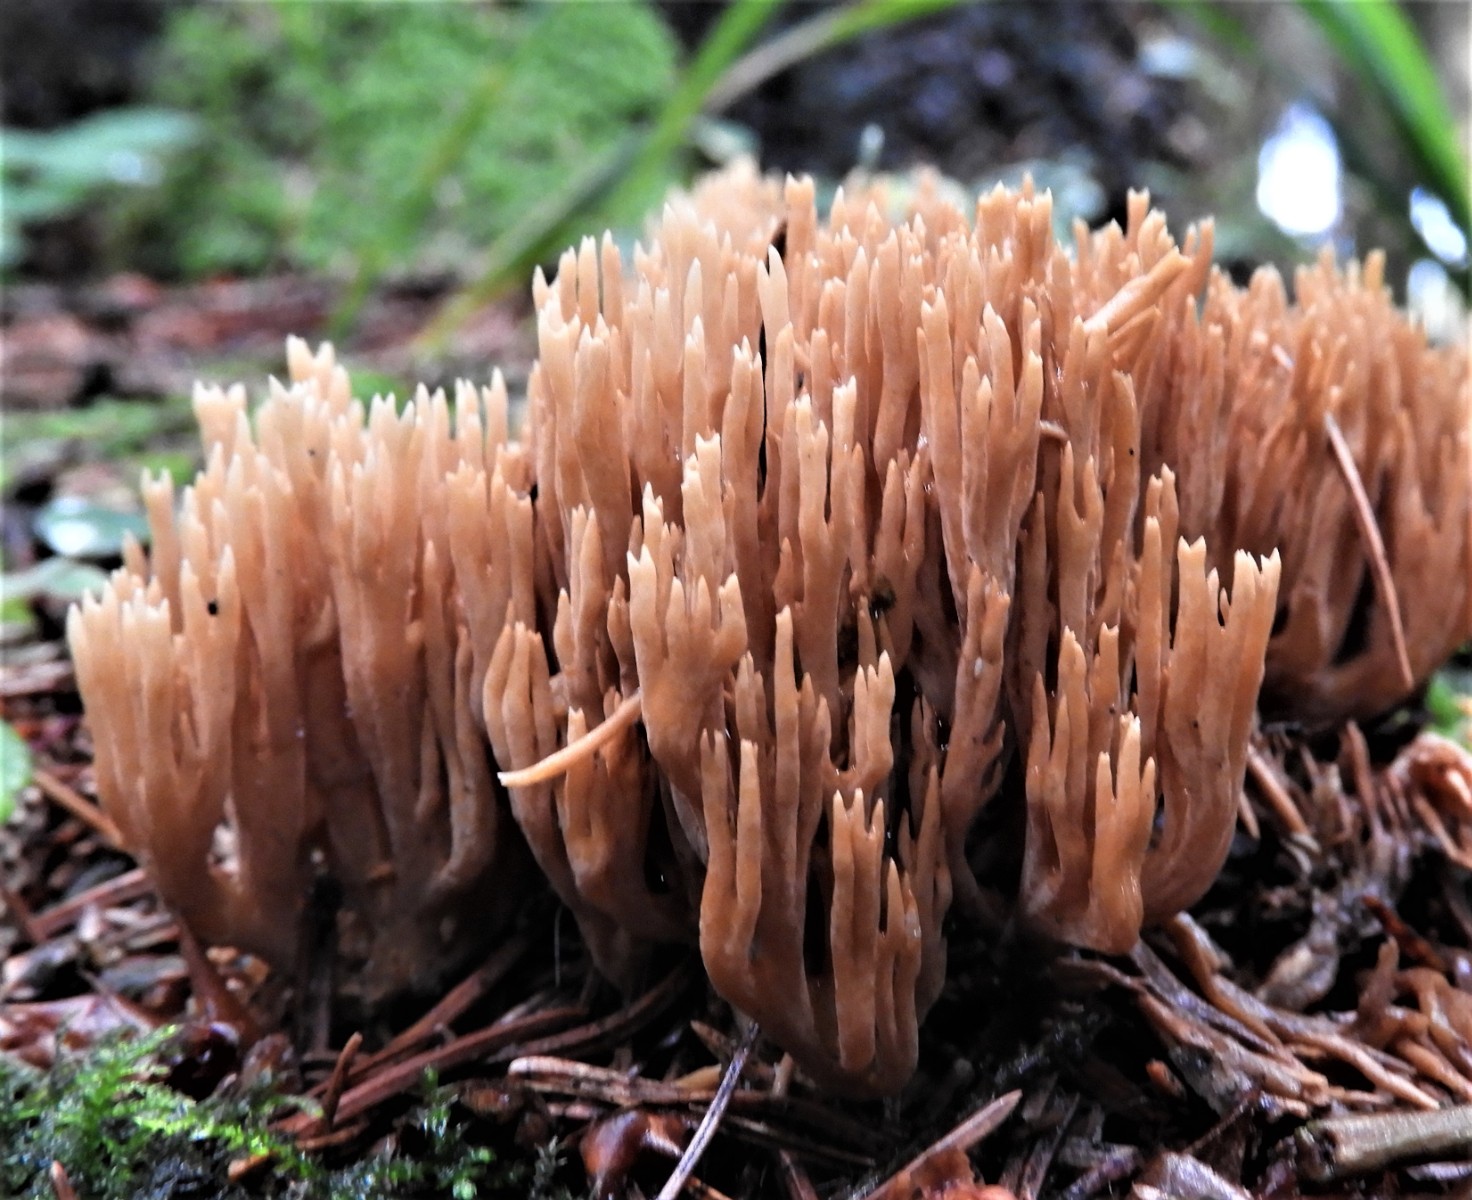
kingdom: Fungi
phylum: Basidiomycota
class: Agaricomycetes
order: Gomphales
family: Gomphaceae
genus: Phaeoclavulina
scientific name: Phaeoclavulina eumorpha
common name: gran-koralsvamp
